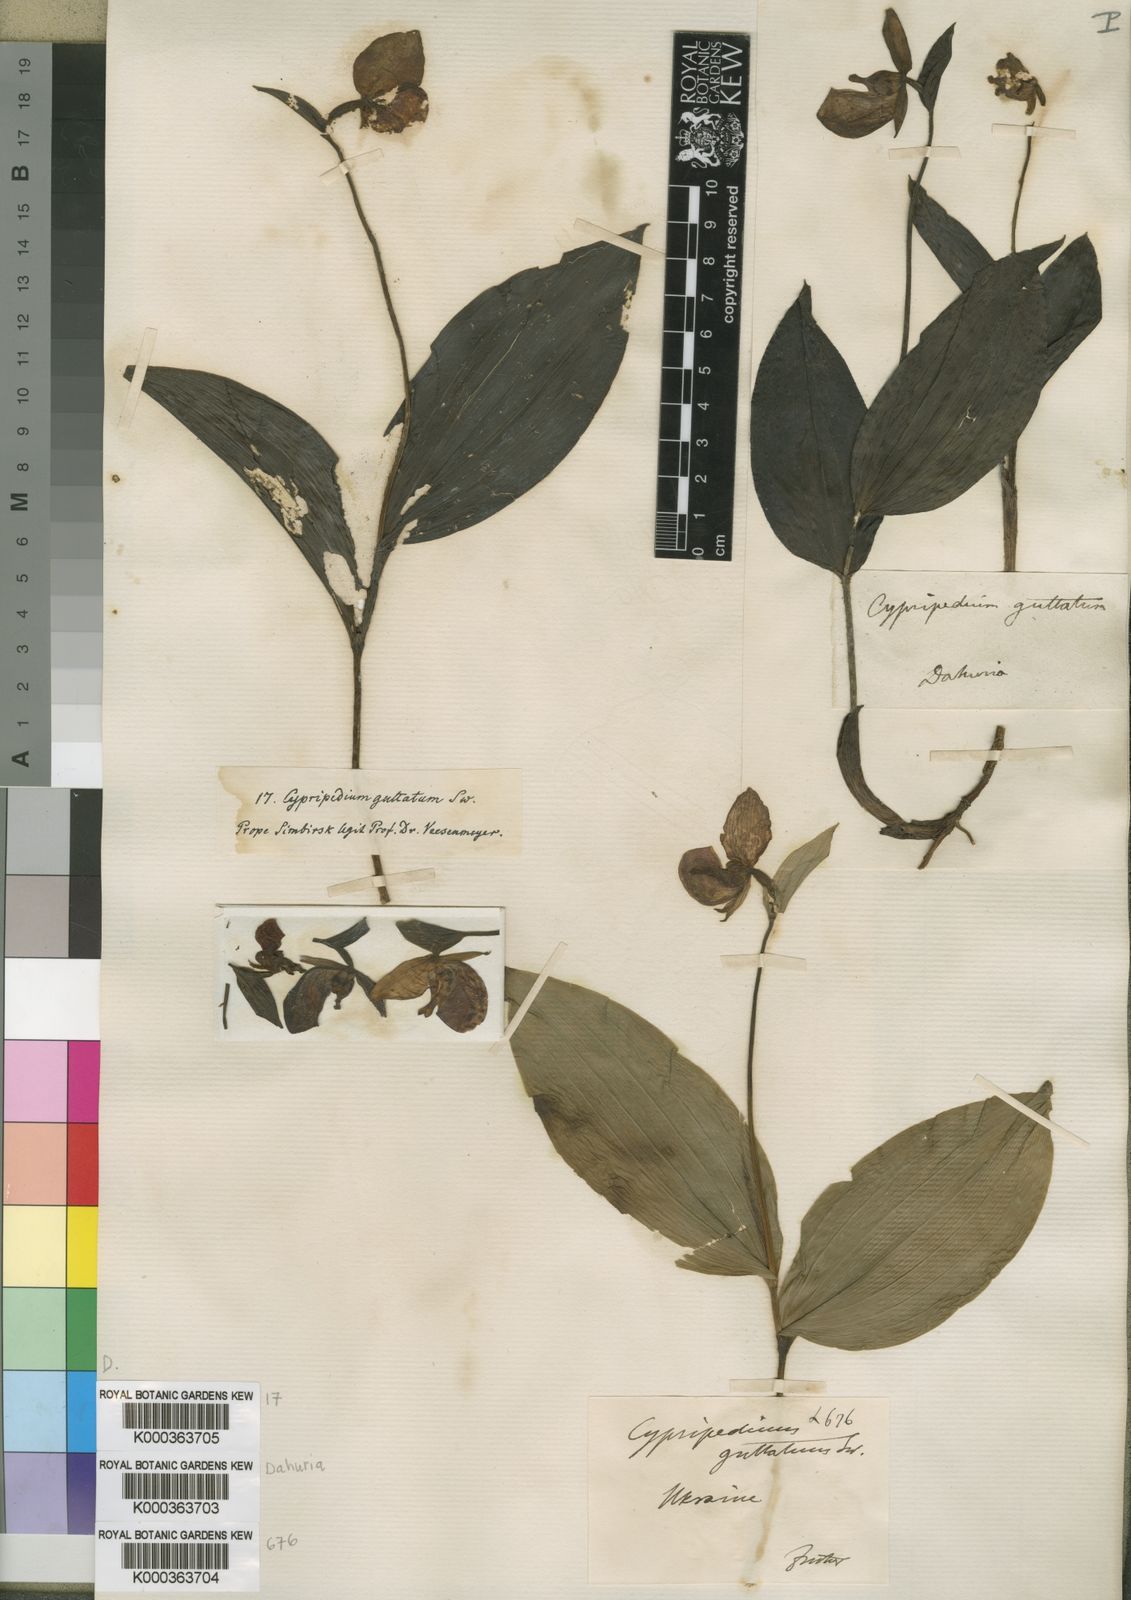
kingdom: Plantae
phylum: Tracheophyta
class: Liliopsida
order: Asparagales
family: Orchidaceae
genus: Cypripedium
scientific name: Cypripedium guttatum
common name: Pink lady slipper
